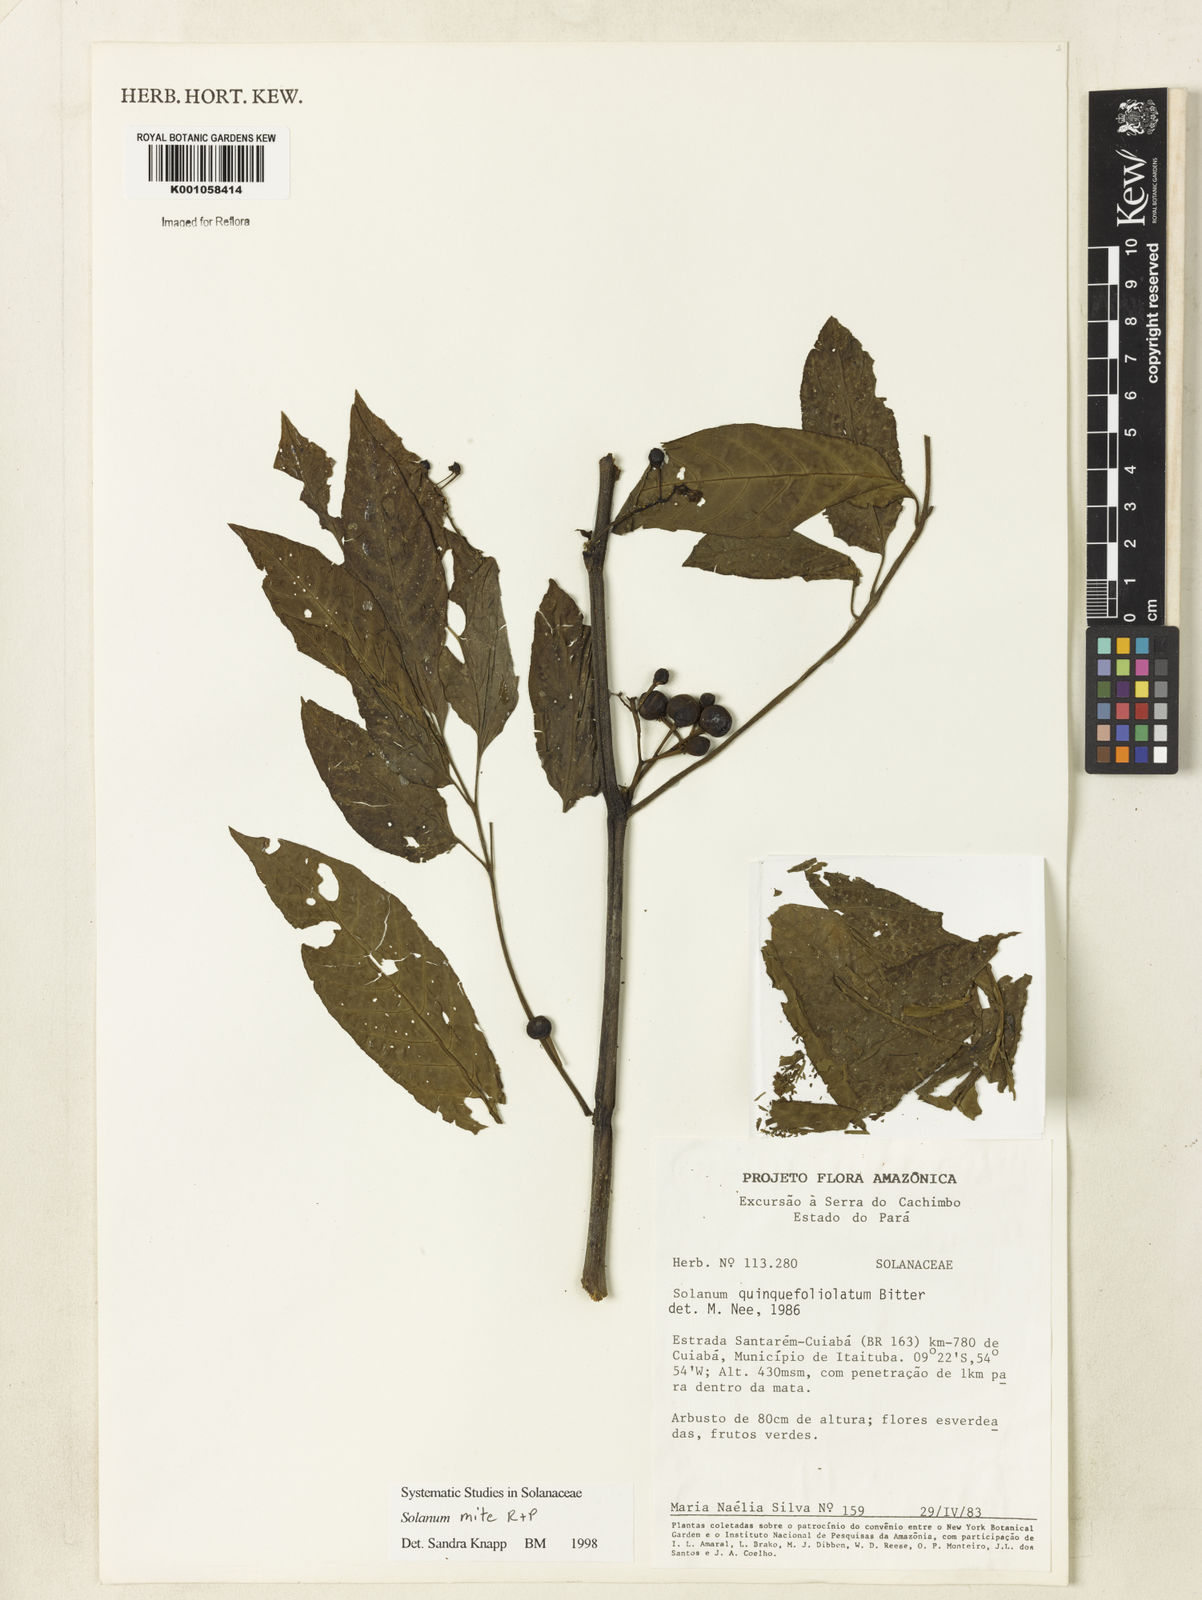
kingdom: Plantae
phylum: Tracheophyta
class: Magnoliopsida
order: Solanales
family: Solanaceae
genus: Solanum
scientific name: Solanum mite
